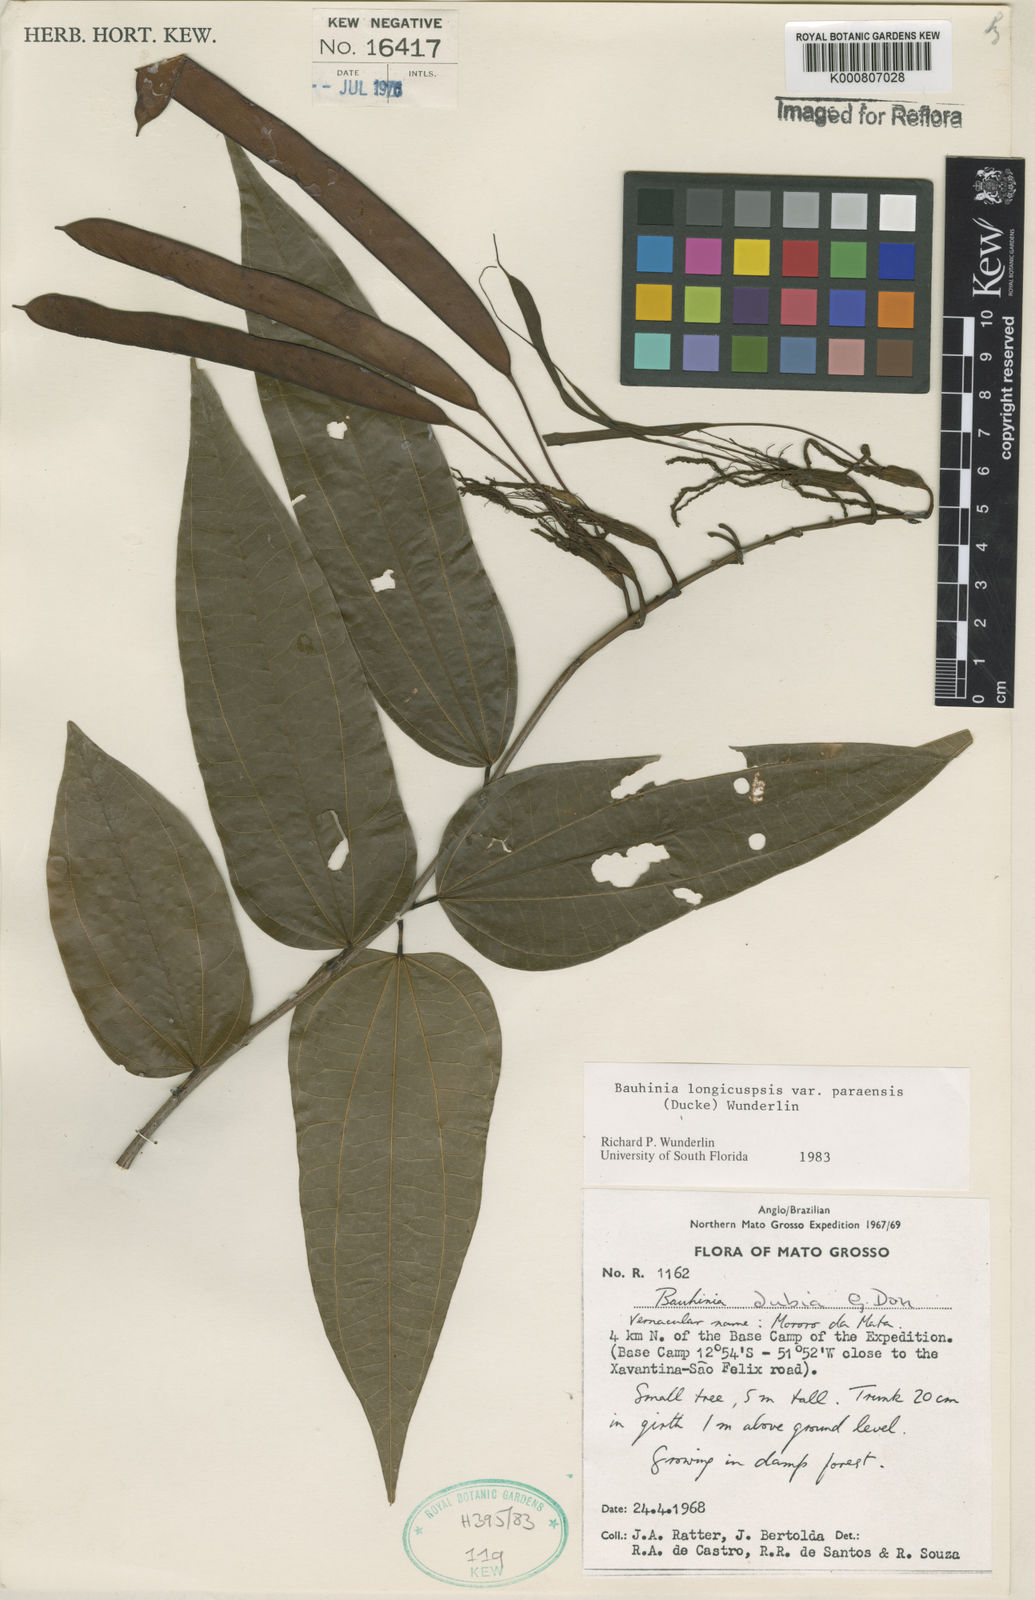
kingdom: Plantae
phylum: Tracheophyta
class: Magnoliopsida
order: Fabales
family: Fabaceae
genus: Bauhinia
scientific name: Bauhinia longicuspis
